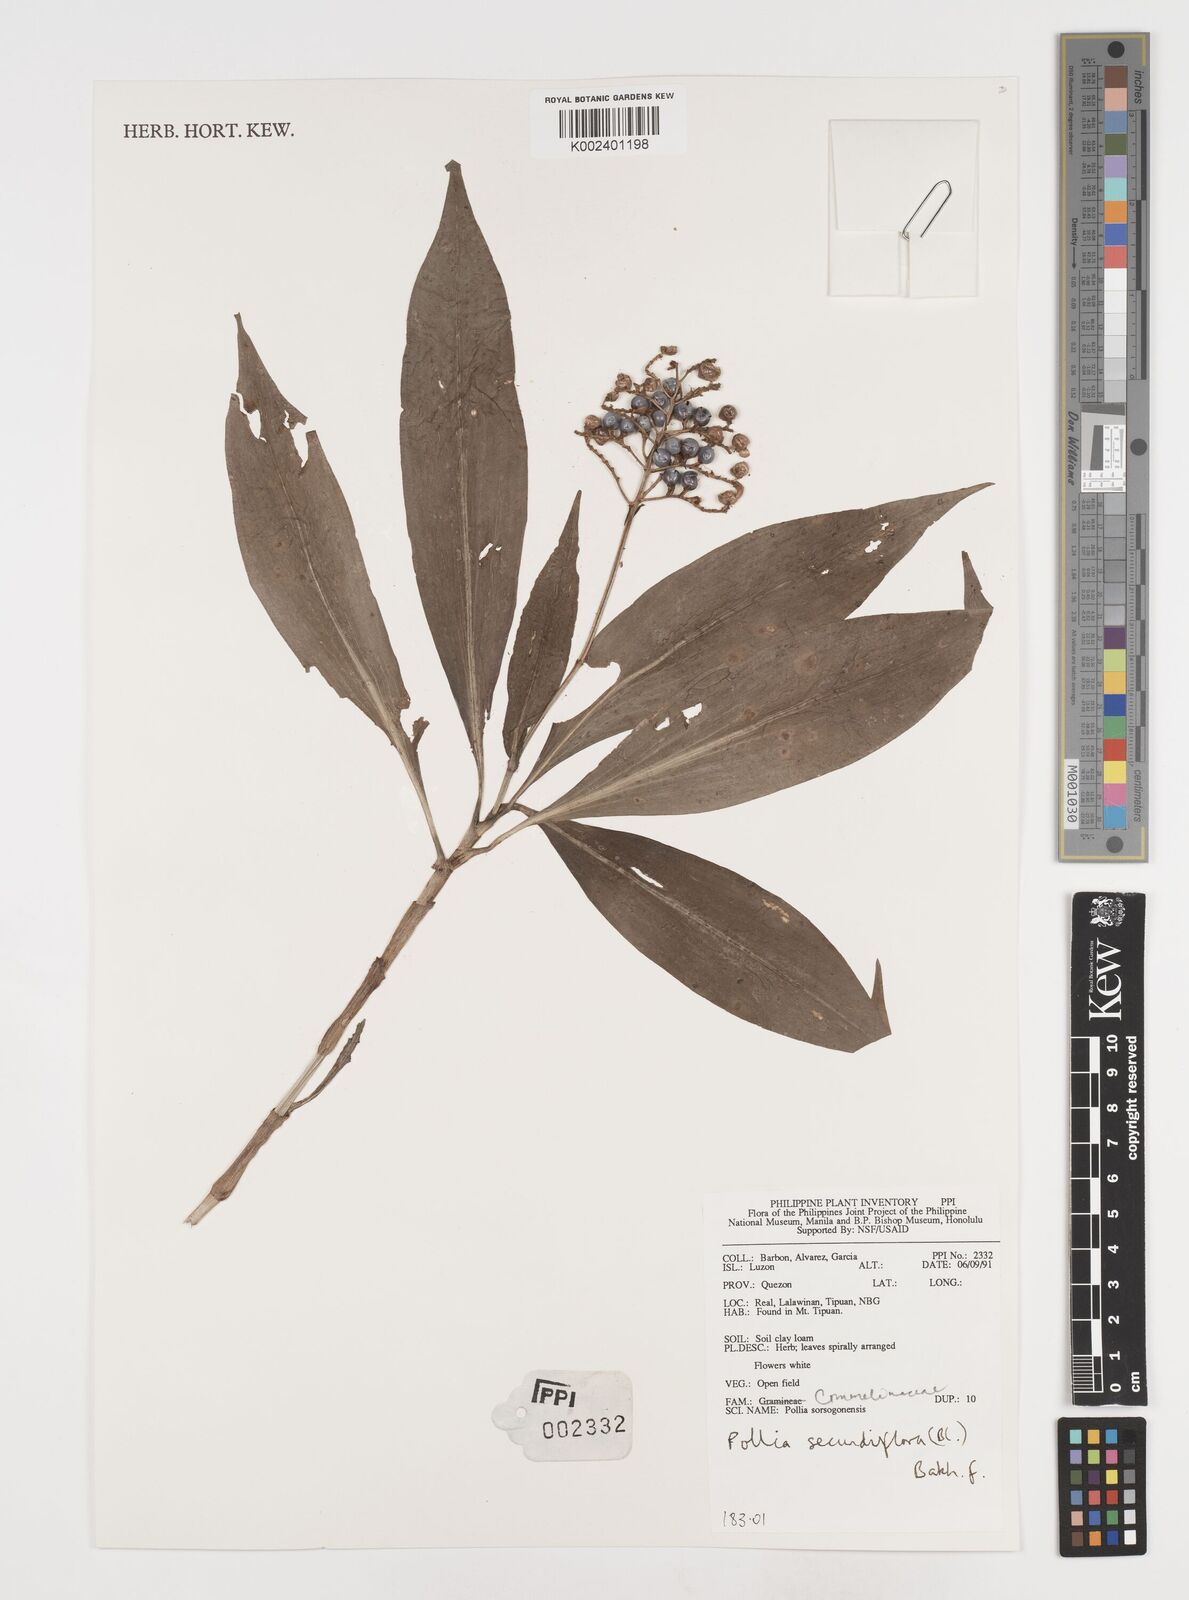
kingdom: Plantae
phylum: Tracheophyta
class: Liliopsida
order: Commelinales
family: Commelinaceae
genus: Pollia
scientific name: Pollia secundiflora
